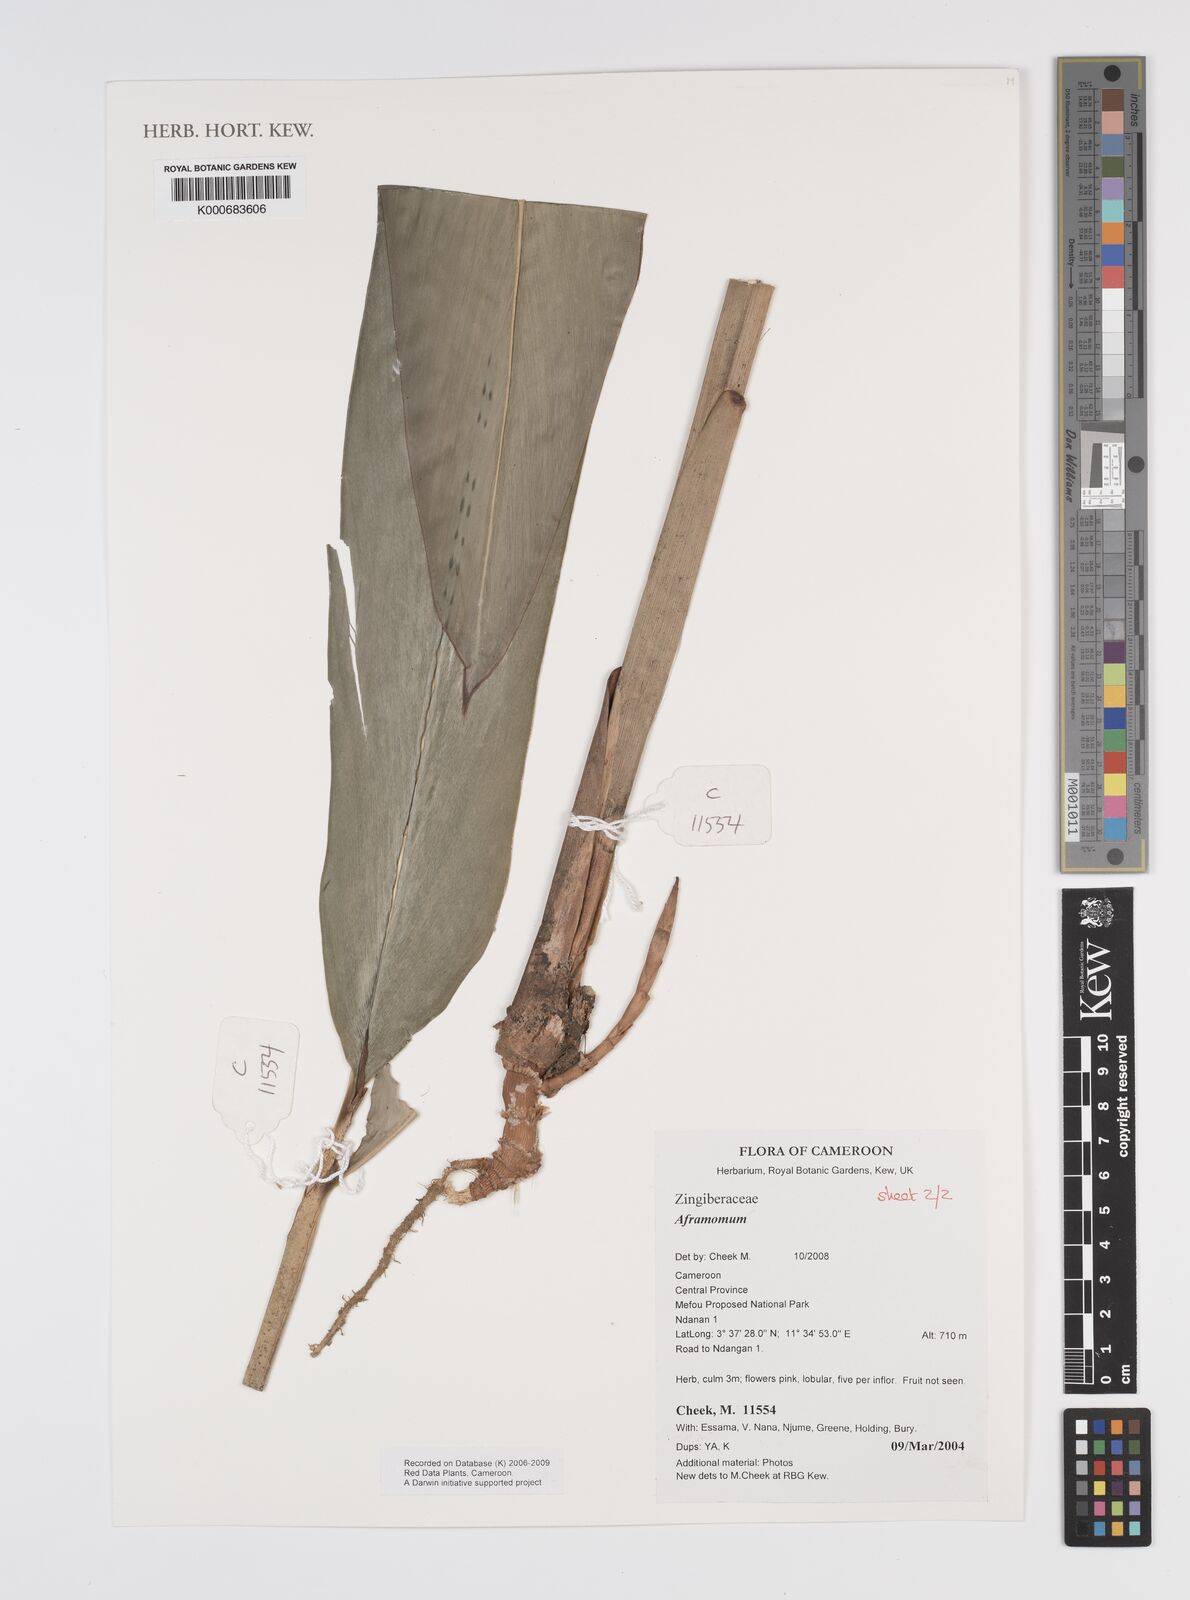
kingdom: Plantae
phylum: Tracheophyta
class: Liliopsida
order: Zingiberales
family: Zingiberaceae
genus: Aframomum
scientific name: Aframomum
